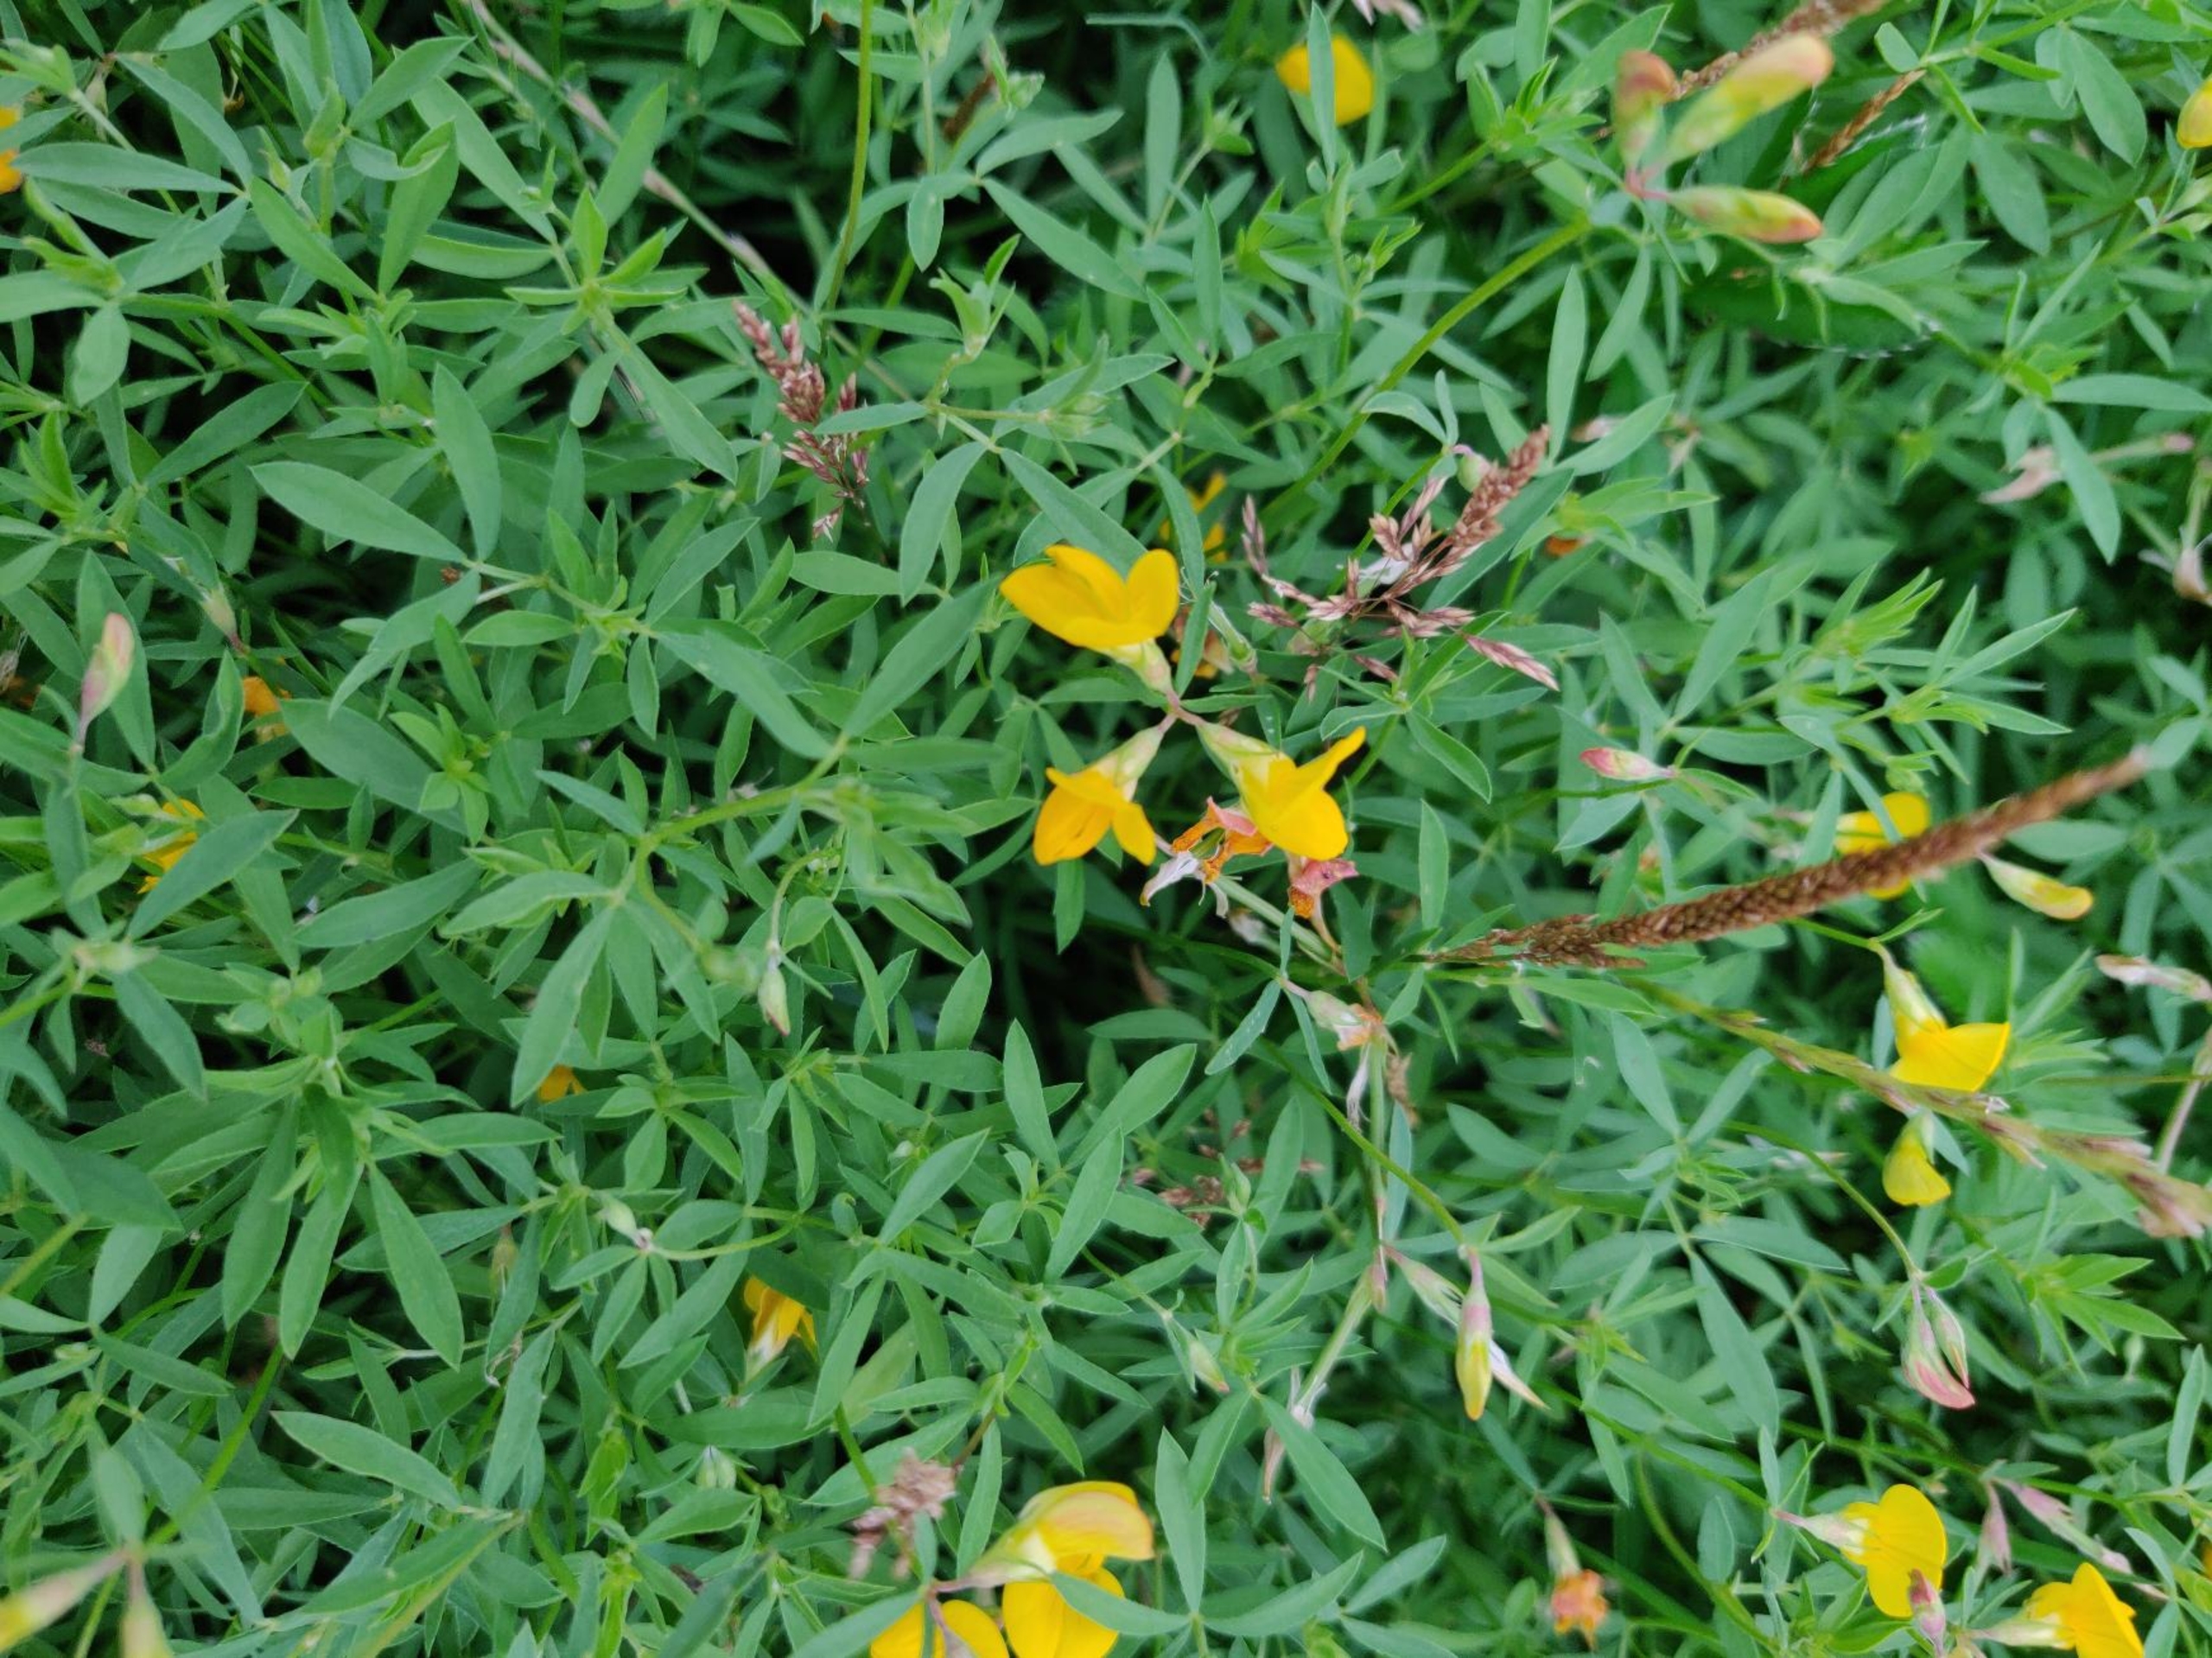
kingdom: Plantae
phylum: Tracheophyta
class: Magnoliopsida
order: Fabales
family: Fabaceae
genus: Lotus
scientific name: Lotus tenuis
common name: Smalbladet kællingetand
